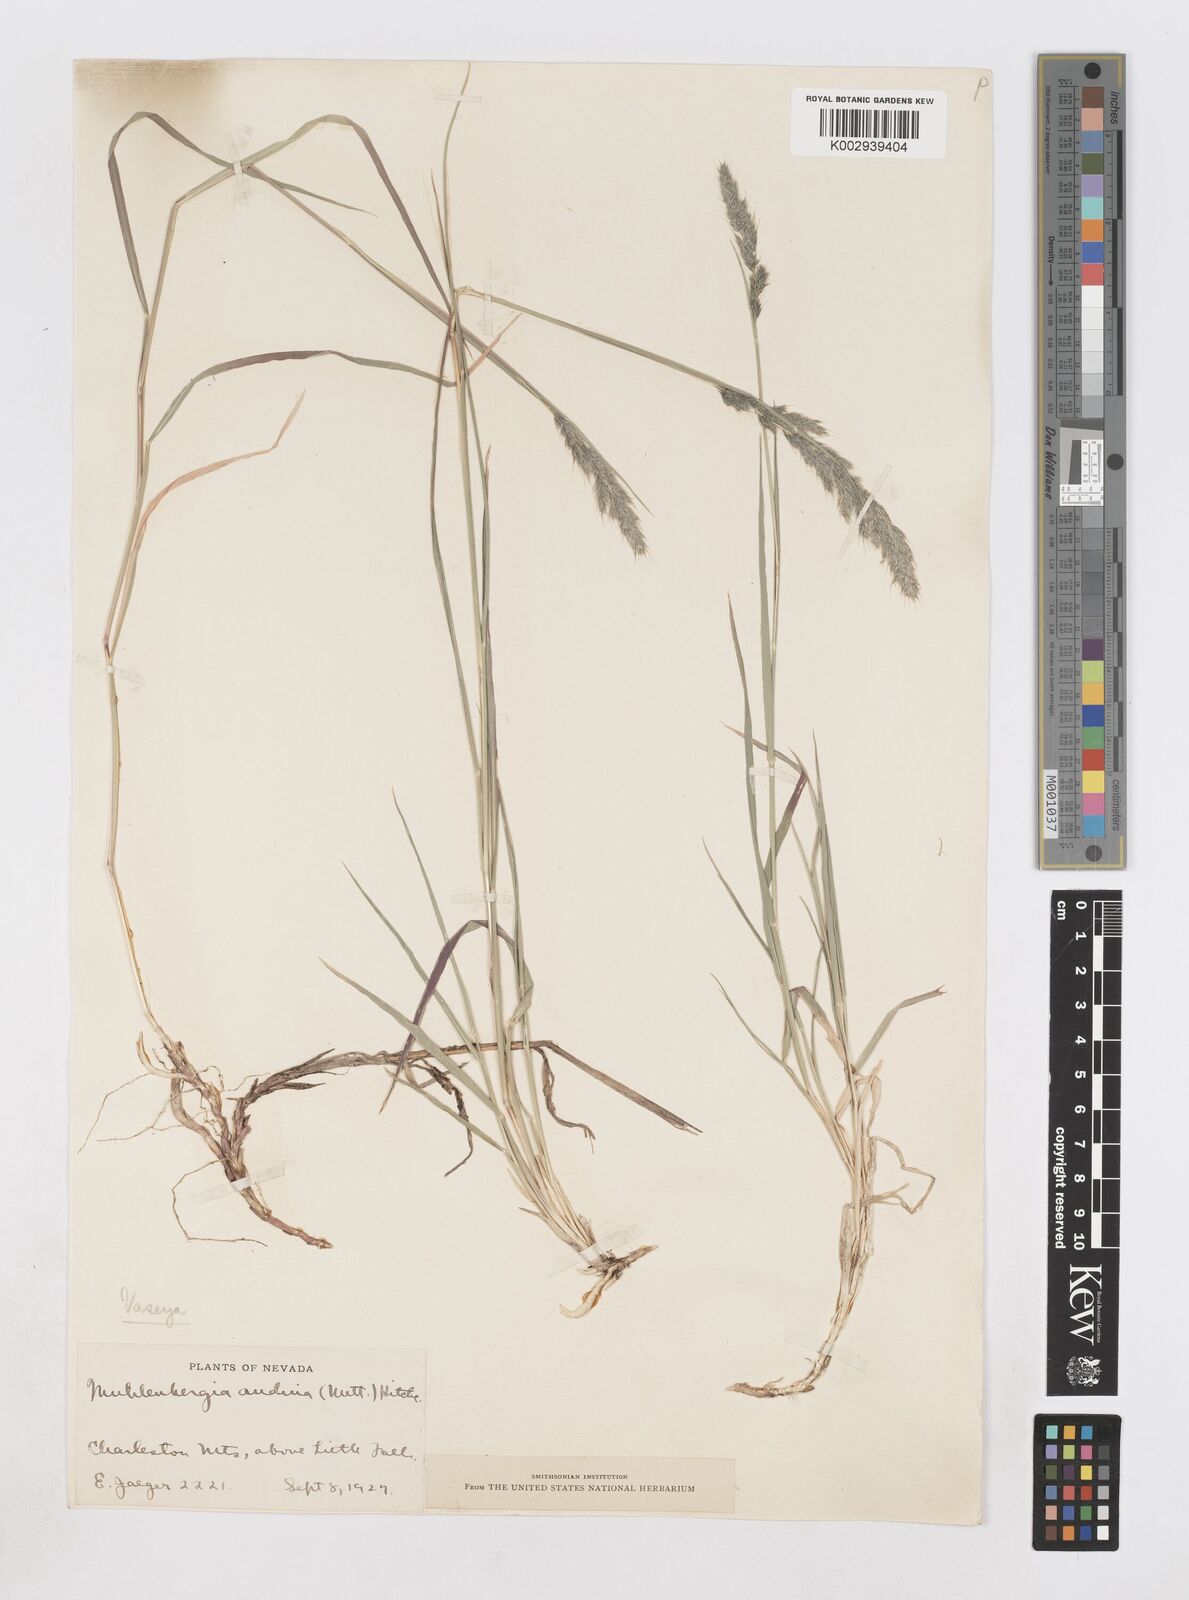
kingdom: Plantae
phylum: Tracheophyta
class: Liliopsida
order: Poales
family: Poaceae
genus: Muhlenbergia
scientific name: Muhlenbergia andina
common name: Foxtail muhly
